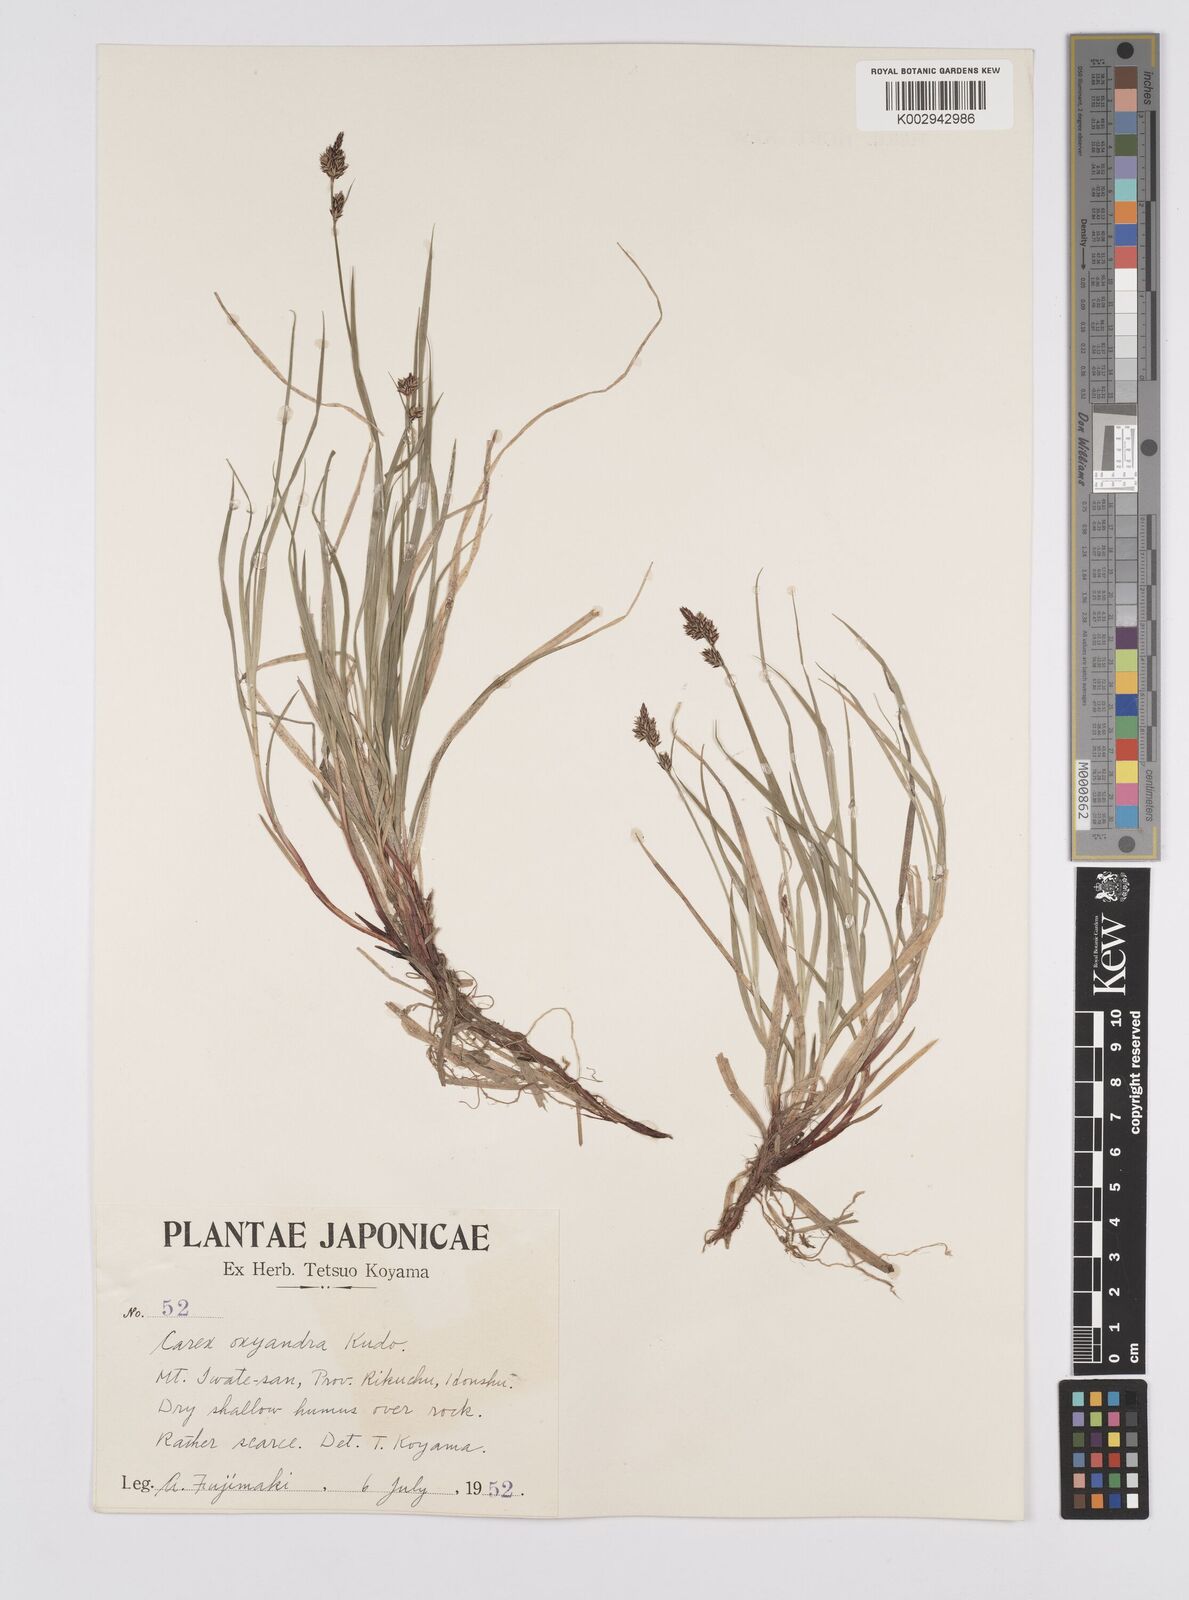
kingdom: Plantae
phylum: Tracheophyta
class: Liliopsida
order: Poales
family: Cyperaceae
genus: Carex
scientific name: Carex oxyandra
